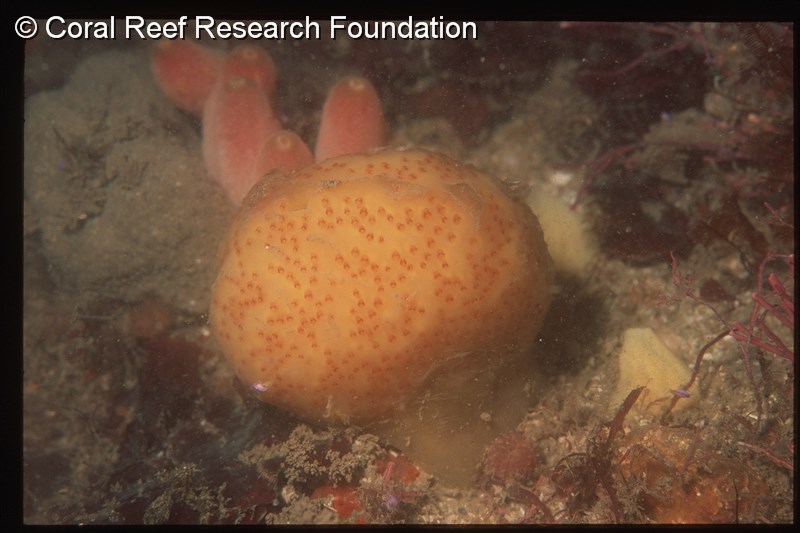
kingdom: Animalia
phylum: Chordata
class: Ascidiacea
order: Aplousobranchia
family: Pseudodistomidae
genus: Pseudodistoma
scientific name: Pseudodistoma
